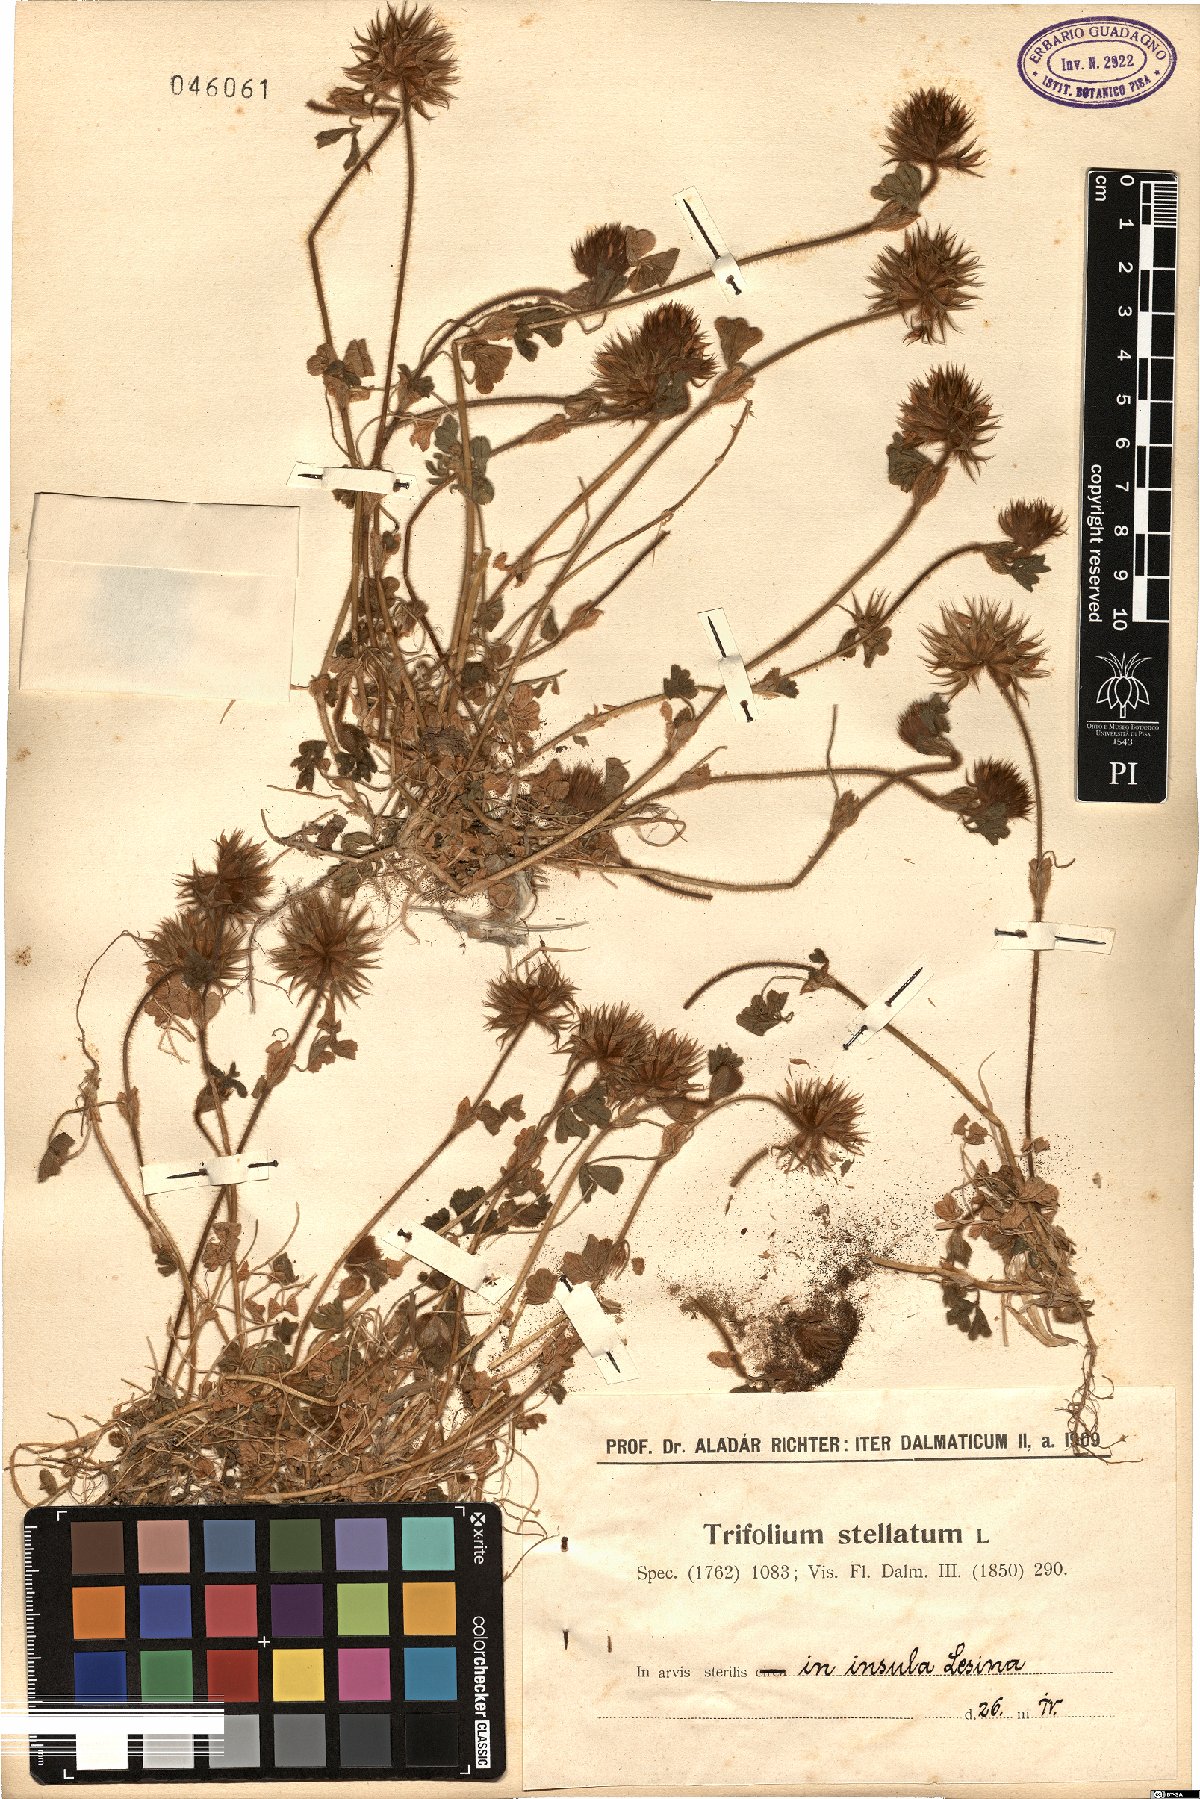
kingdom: Plantae
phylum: Tracheophyta
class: Magnoliopsida
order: Fabales
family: Fabaceae
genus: Trifolium
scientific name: Trifolium stellatum
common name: Starry clover
